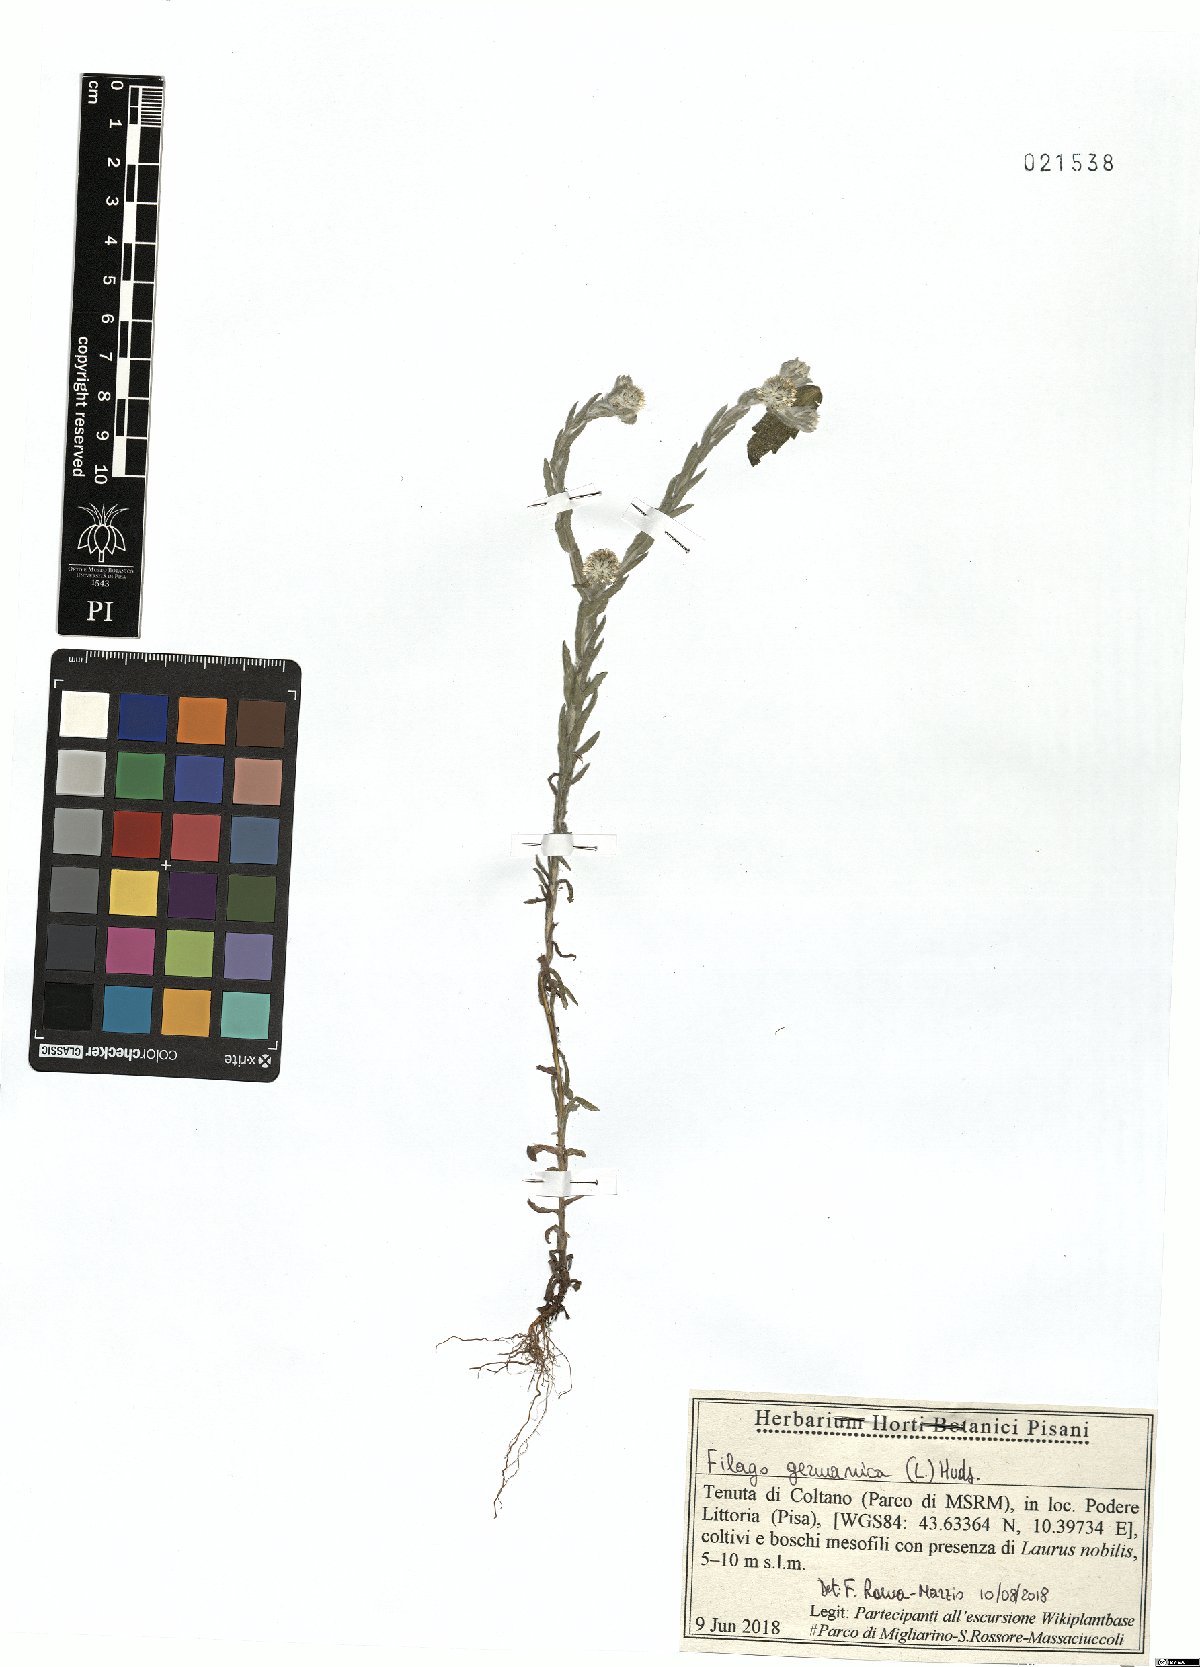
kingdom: Plantae
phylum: Tracheophyta
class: Magnoliopsida
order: Asterales
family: Asteraceae
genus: Filago
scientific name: Filago germanica
